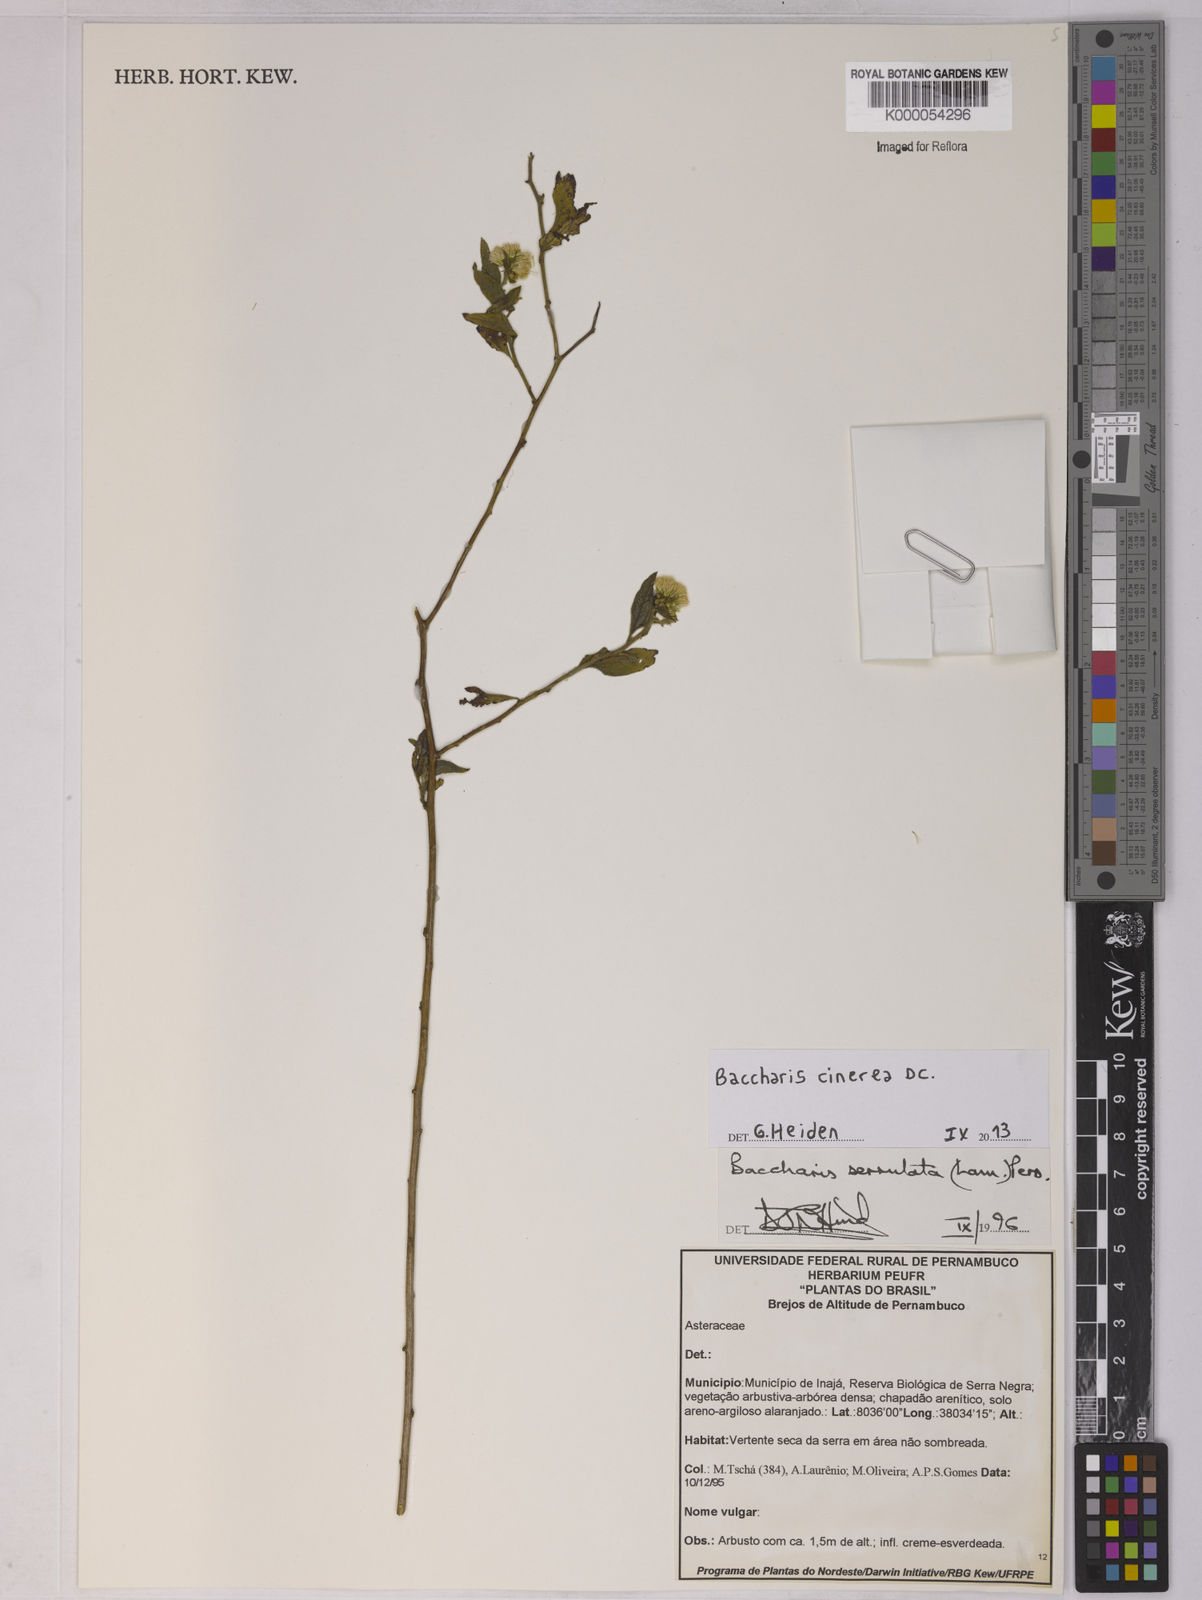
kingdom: Plantae
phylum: Tracheophyta
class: Magnoliopsida
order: Asterales
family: Asteraceae
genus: Baccharis
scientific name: Baccharis serrulata
